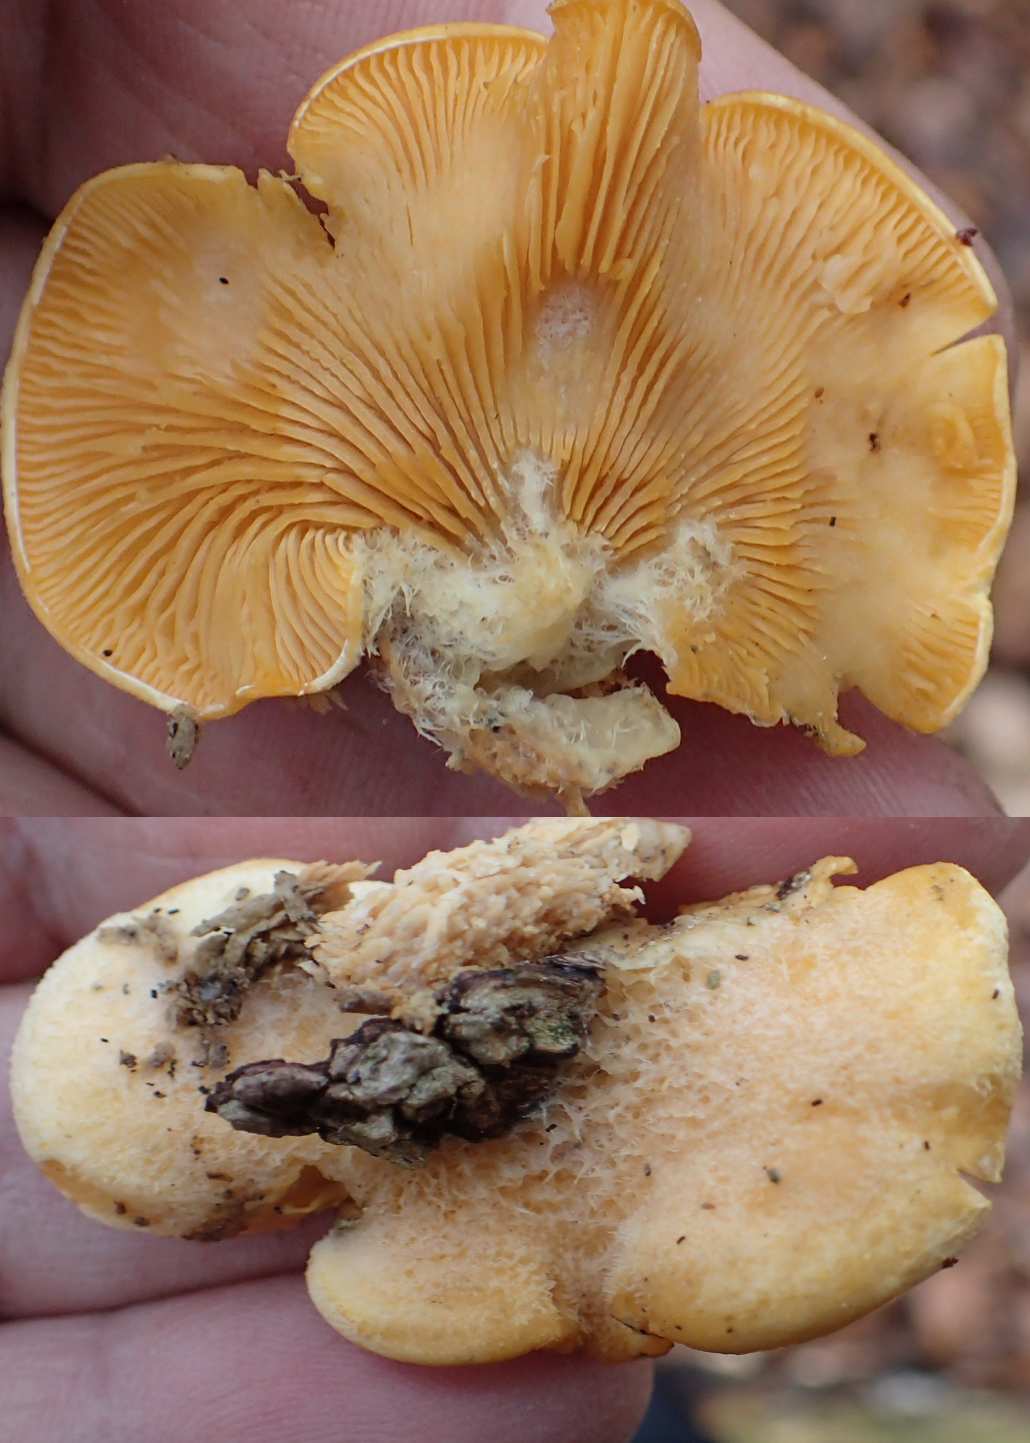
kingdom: Fungi
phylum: Basidiomycota
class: Agaricomycetes
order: Agaricales
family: Phyllotopsidaceae
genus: Phyllotopsis
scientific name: Phyllotopsis nidulans
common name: okkerblad
